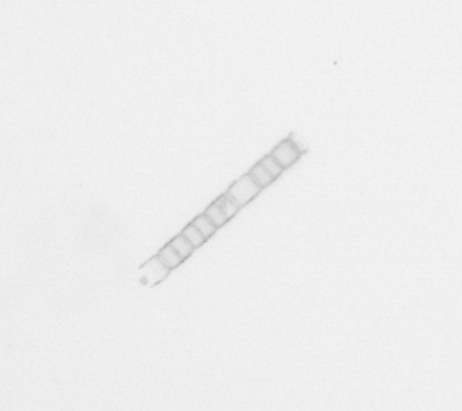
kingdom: Chromista
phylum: Ochrophyta
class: Bacillariophyceae
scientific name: Bacillariophyceae
